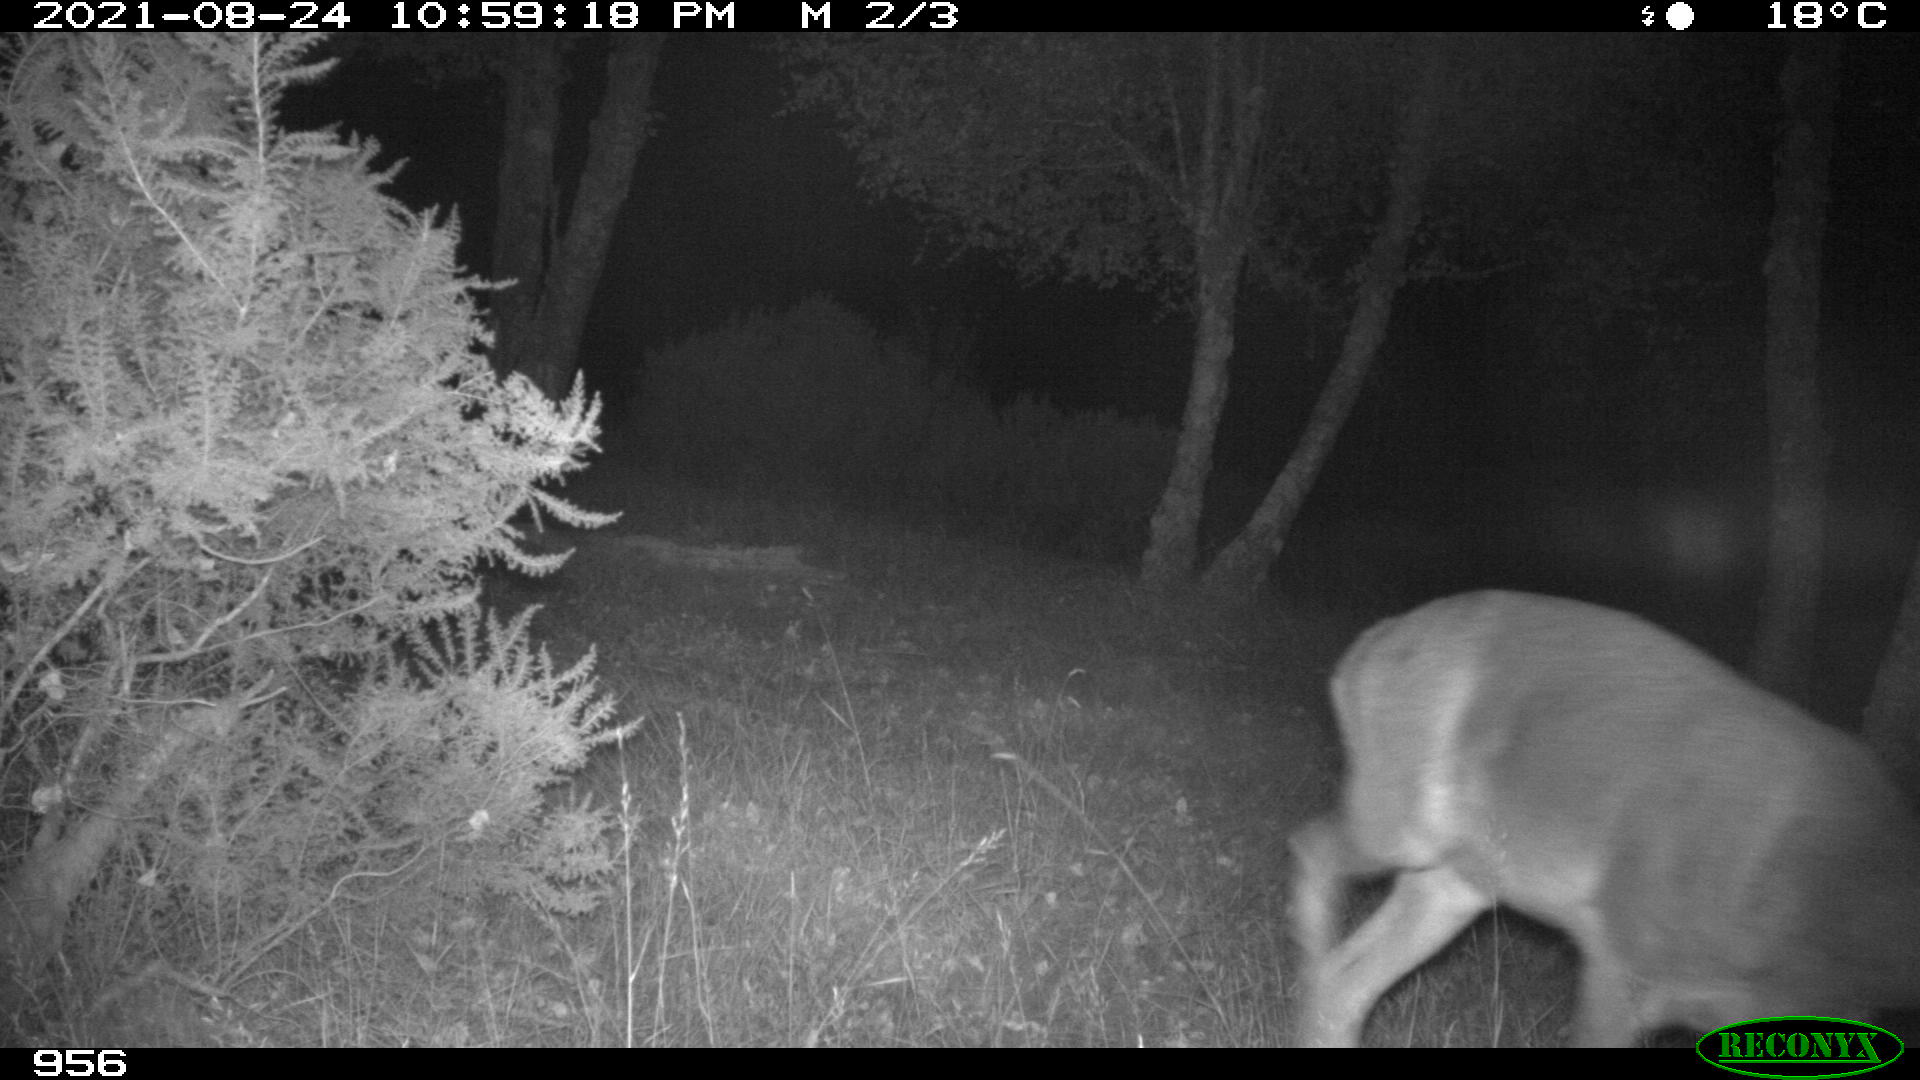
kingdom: Animalia
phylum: Chordata
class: Mammalia
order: Artiodactyla
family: Cervidae
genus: Capreolus
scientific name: Capreolus capreolus
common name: Western roe deer
